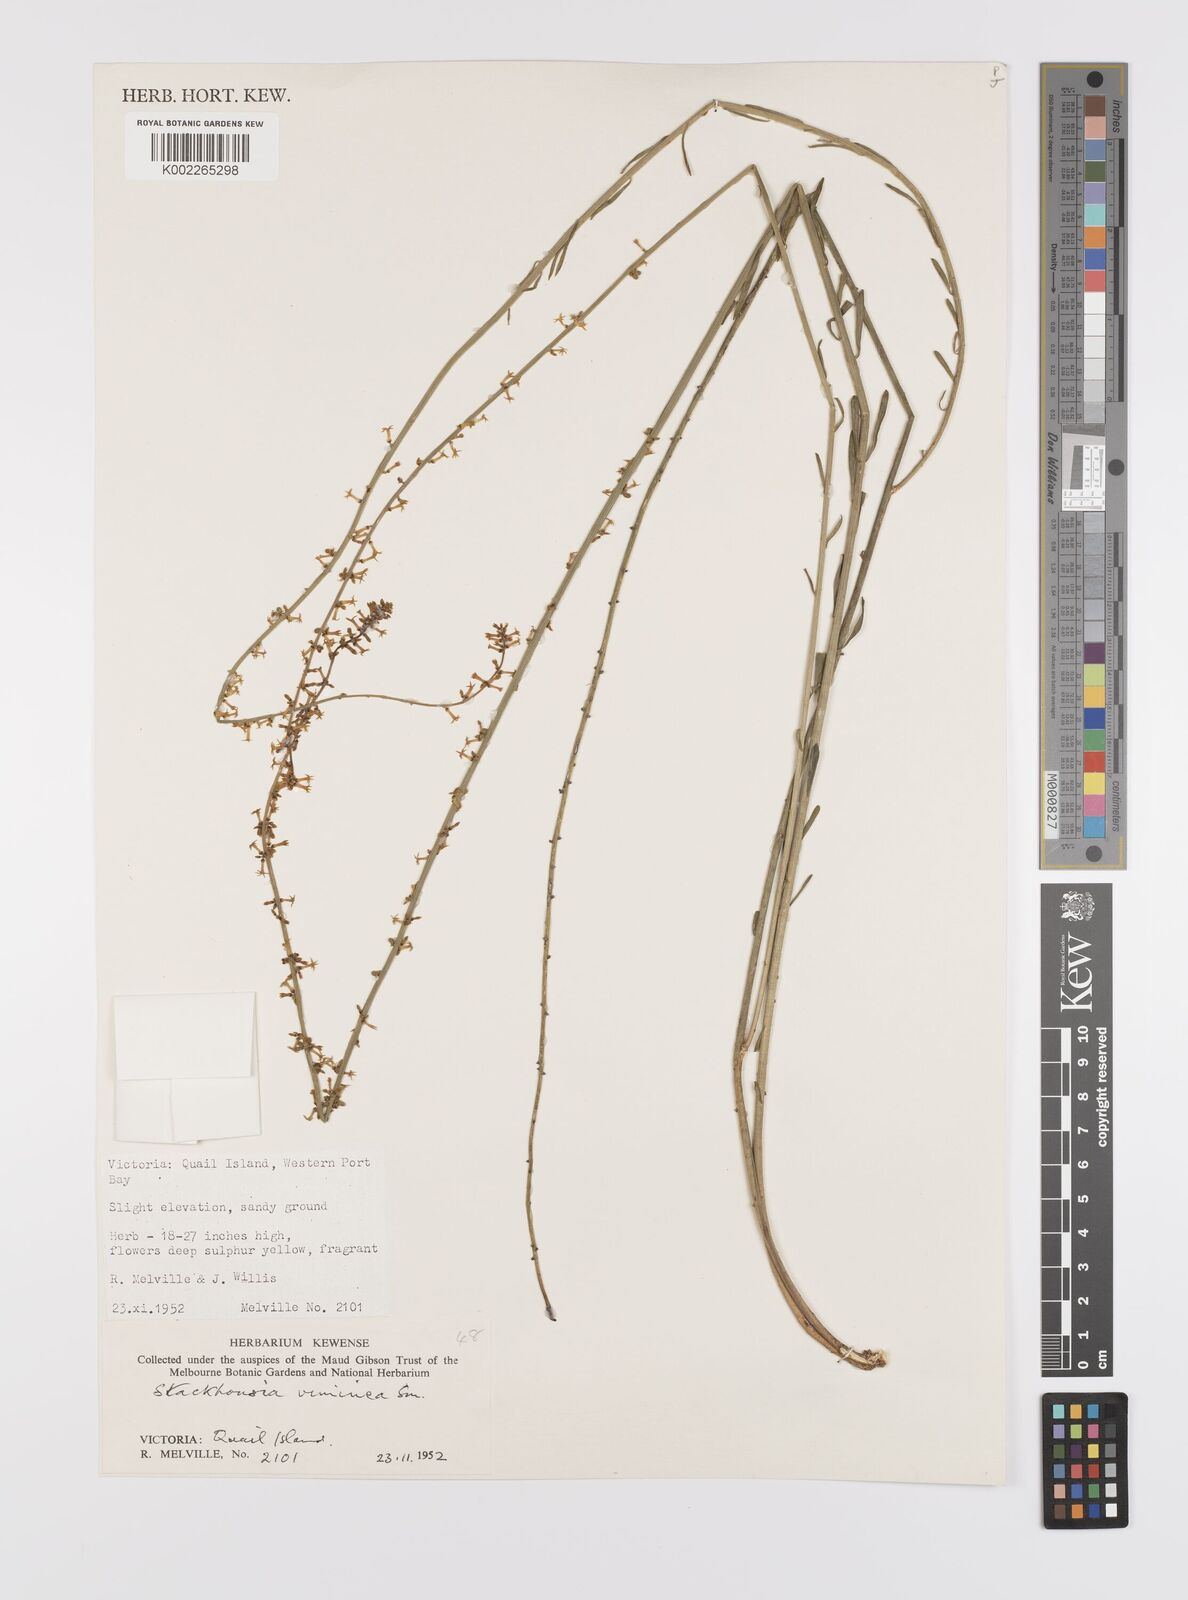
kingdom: Plantae
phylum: Tracheophyta
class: Magnoliopsida
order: Celastrales
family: Celastraceae
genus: Stackhousia
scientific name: Stackhousia viminea
